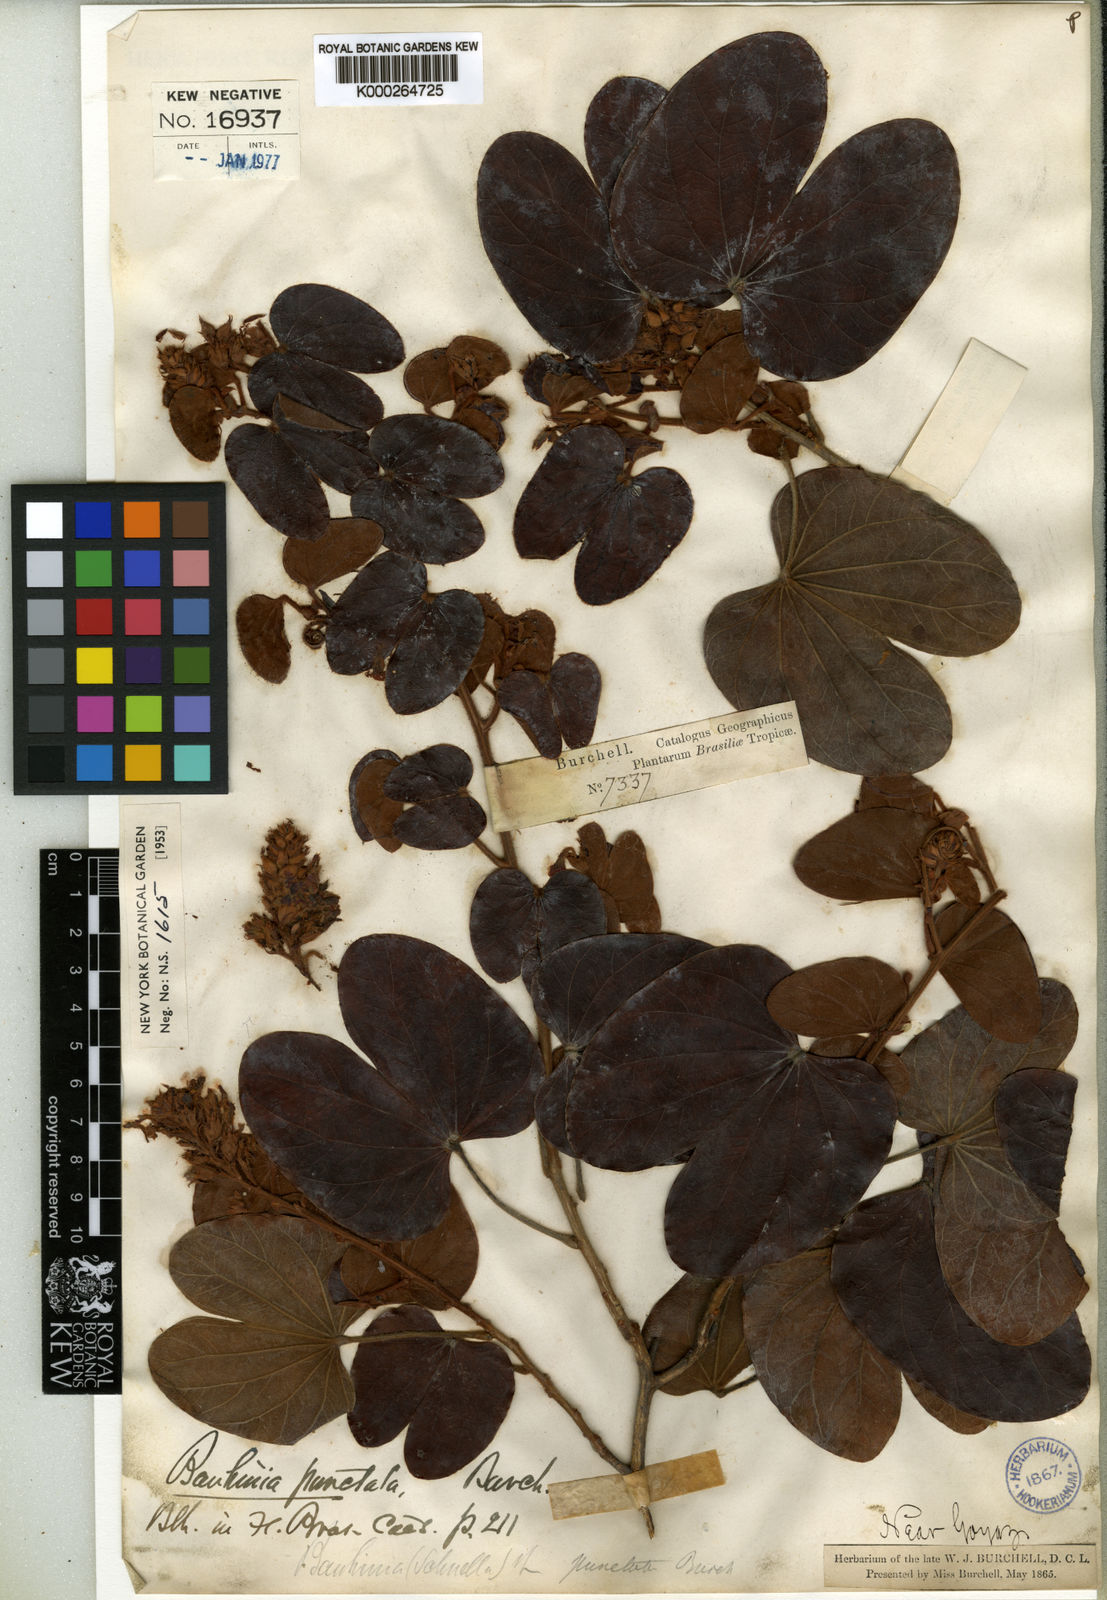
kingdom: Plantae
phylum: Tracheophyta
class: Magnoliopsida
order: Fabales
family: Fabaceae
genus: Bauhinia
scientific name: Bauhinia
